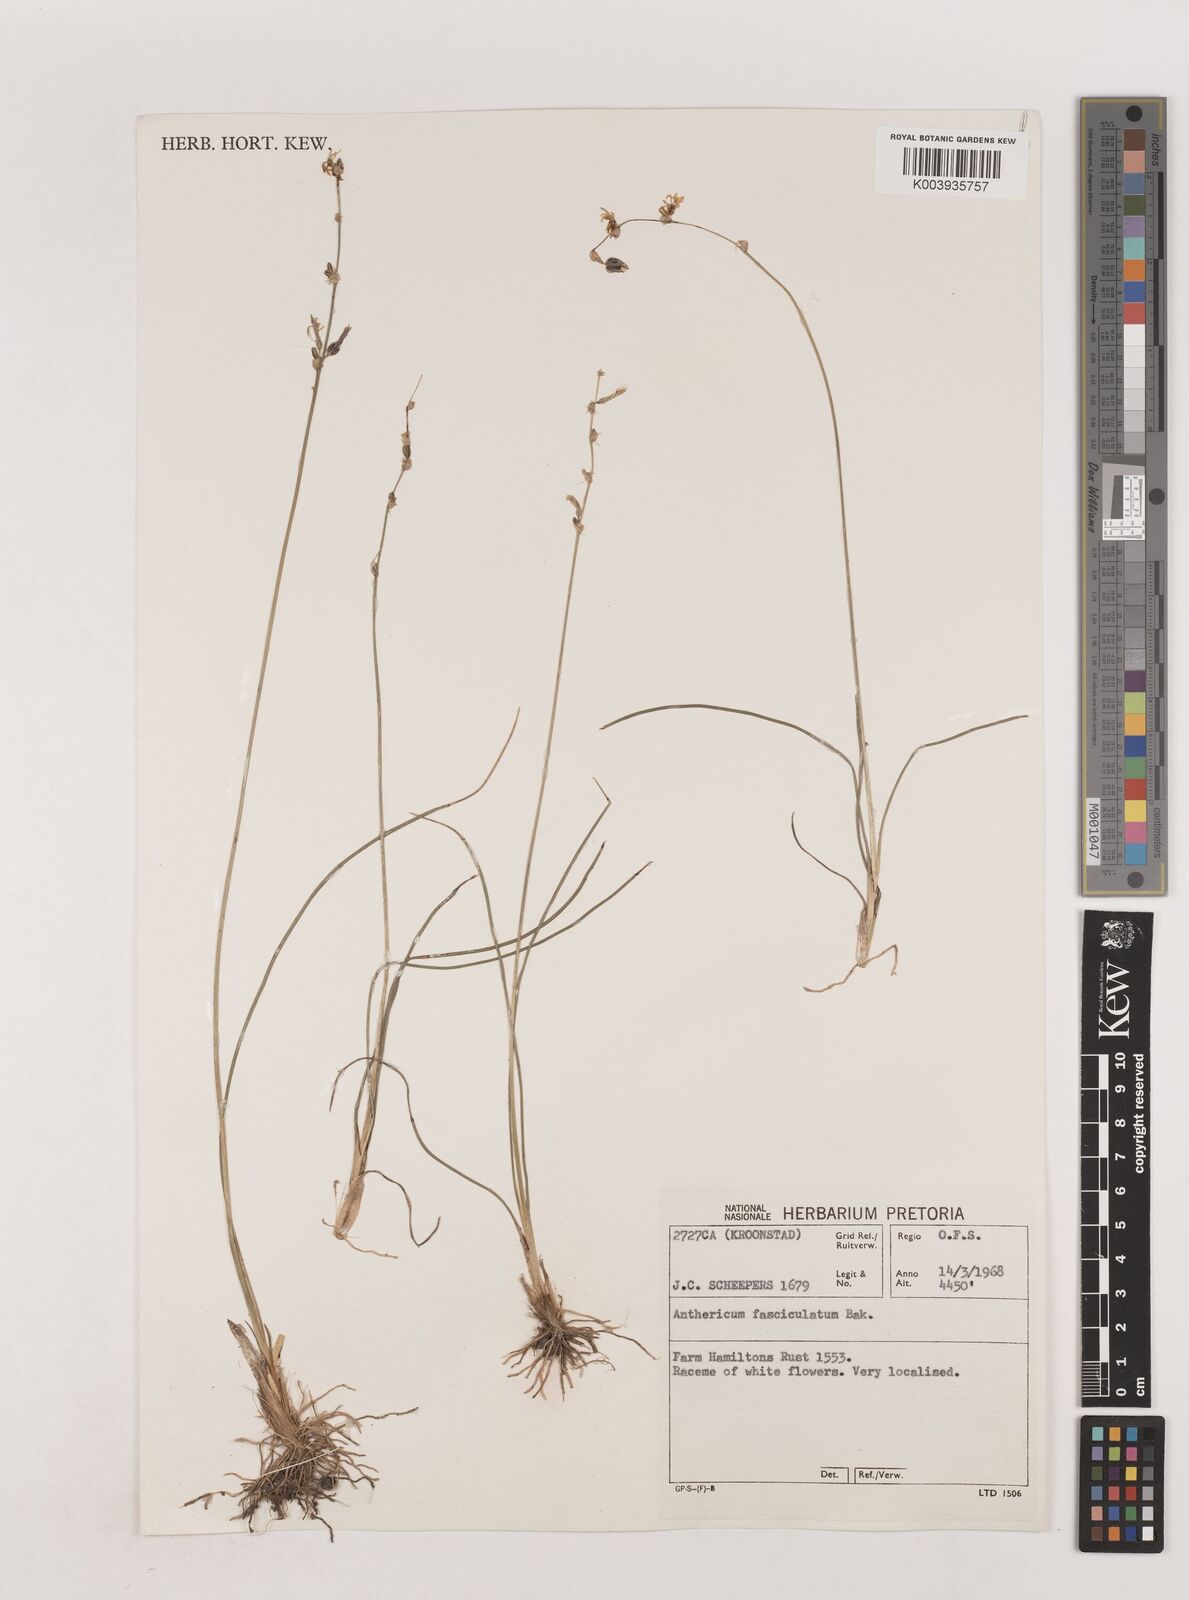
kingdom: Plantae
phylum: Tracheophyta
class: Liliopsida
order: Asparagales
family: Asparagaceae
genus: Chlorophytum
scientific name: Chlorophytum fasciculatum
